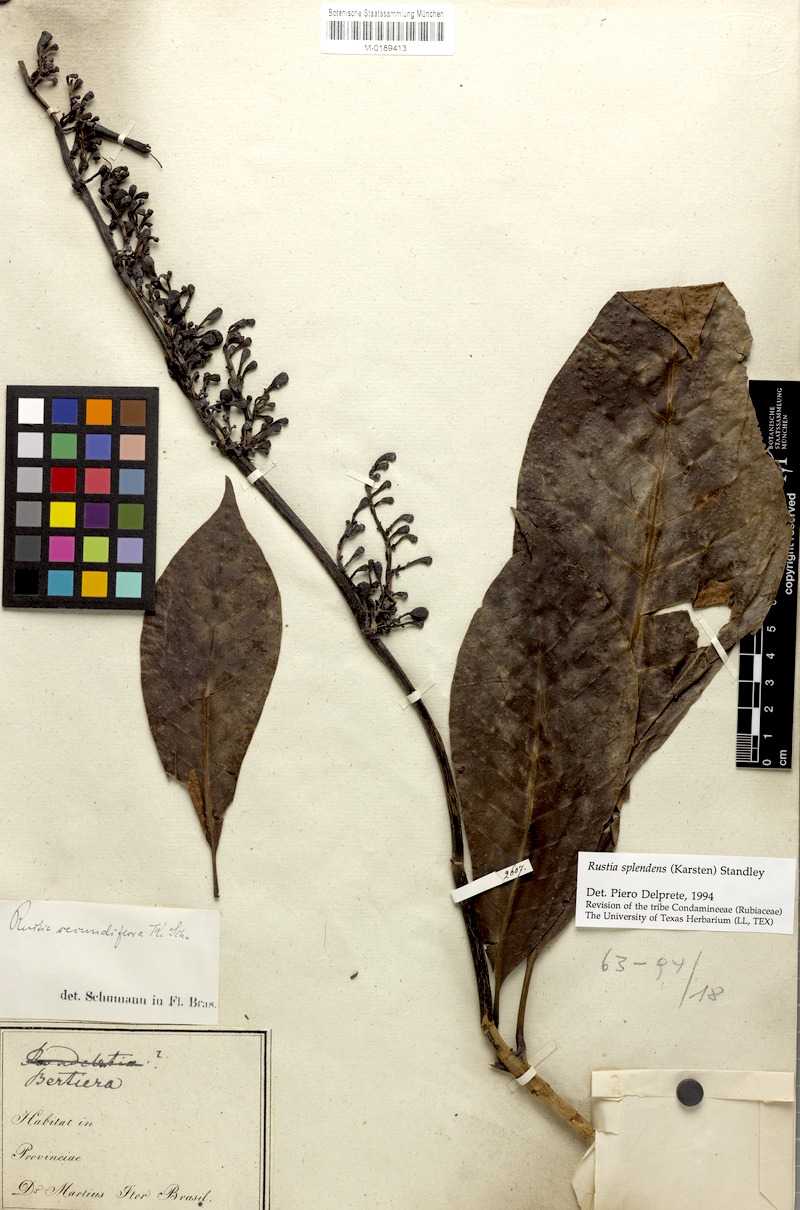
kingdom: Plantae
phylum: Tracheophyta
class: Magnoliopsida
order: Gentianales
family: Rubiaceae
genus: Rustia
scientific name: Rustia thibaudioides
